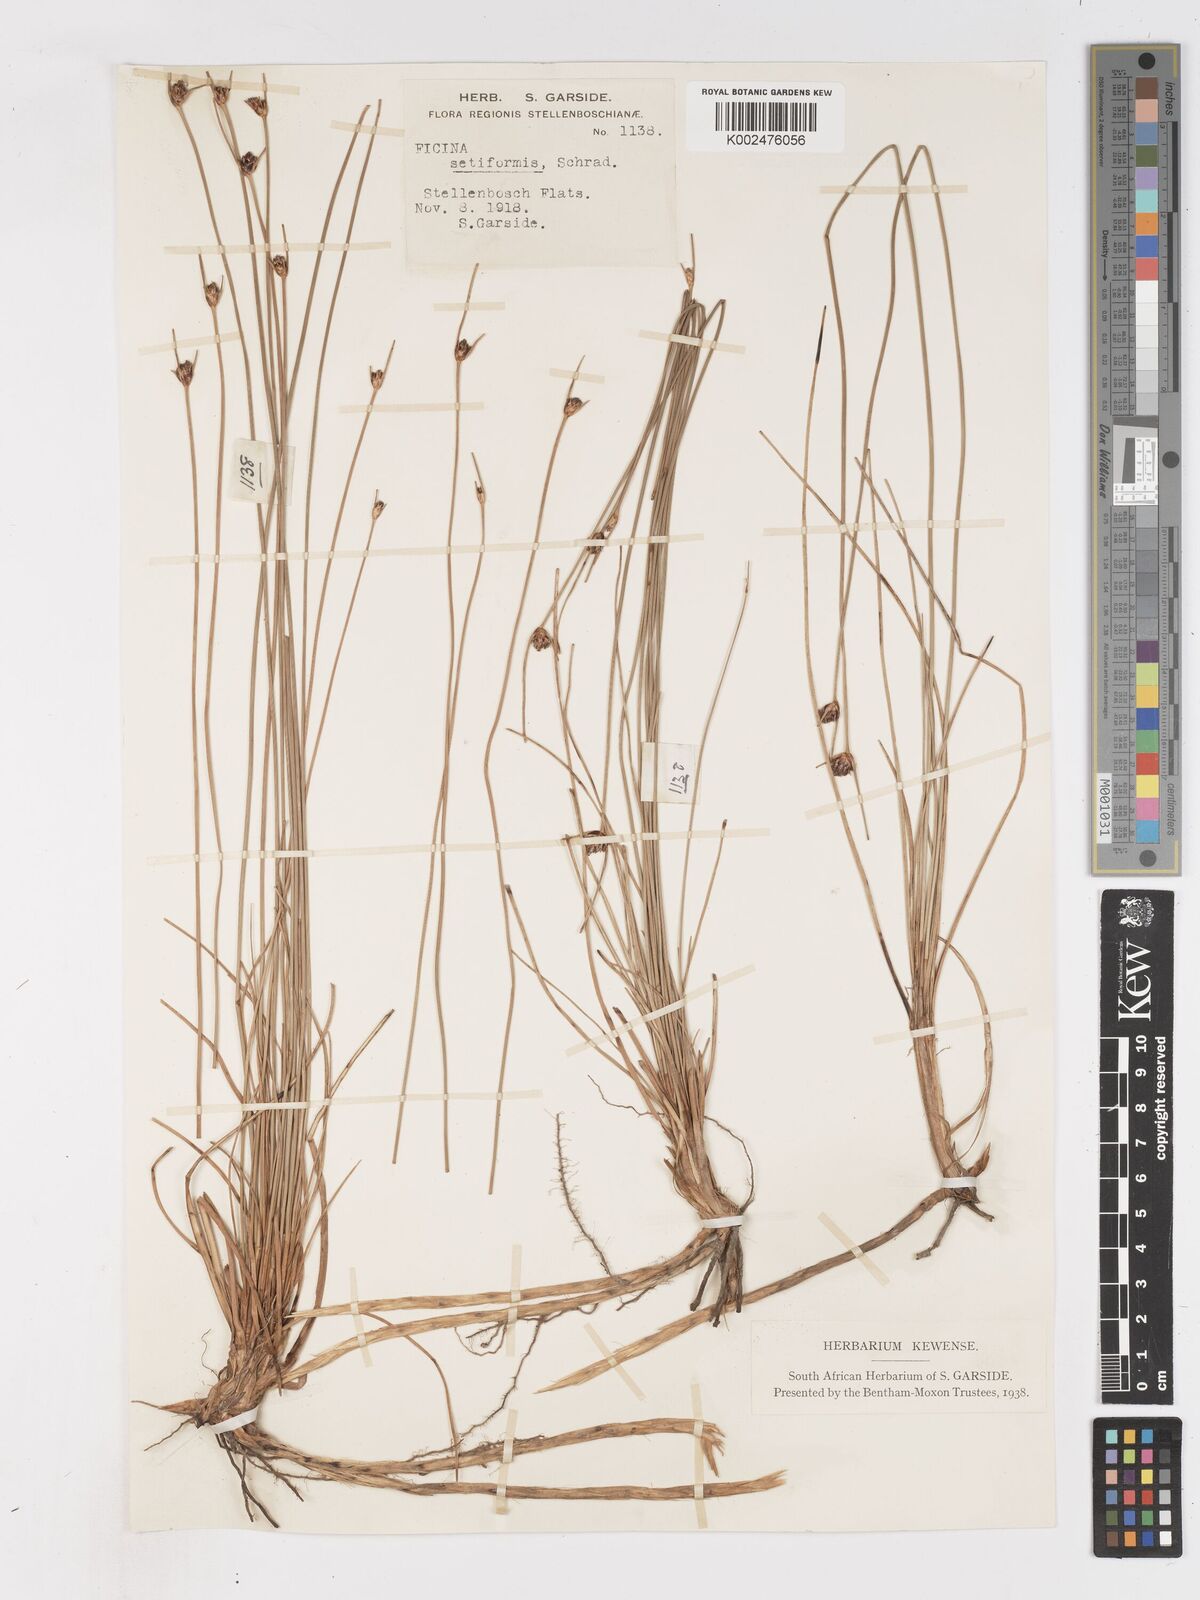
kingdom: Plantae
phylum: Tracheophyta
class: Liliopsida
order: Poales
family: Cyperaceae
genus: Ficinia
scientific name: Ficinia indica
